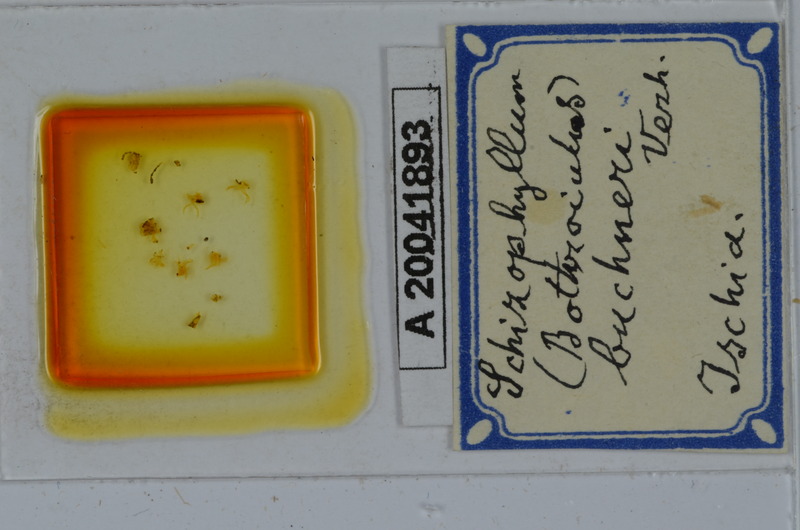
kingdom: Animalia
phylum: Arthropoda
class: Diplopoda
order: Julida
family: Julidae
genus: Schizophyllum
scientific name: Schizophyllum buchneri
